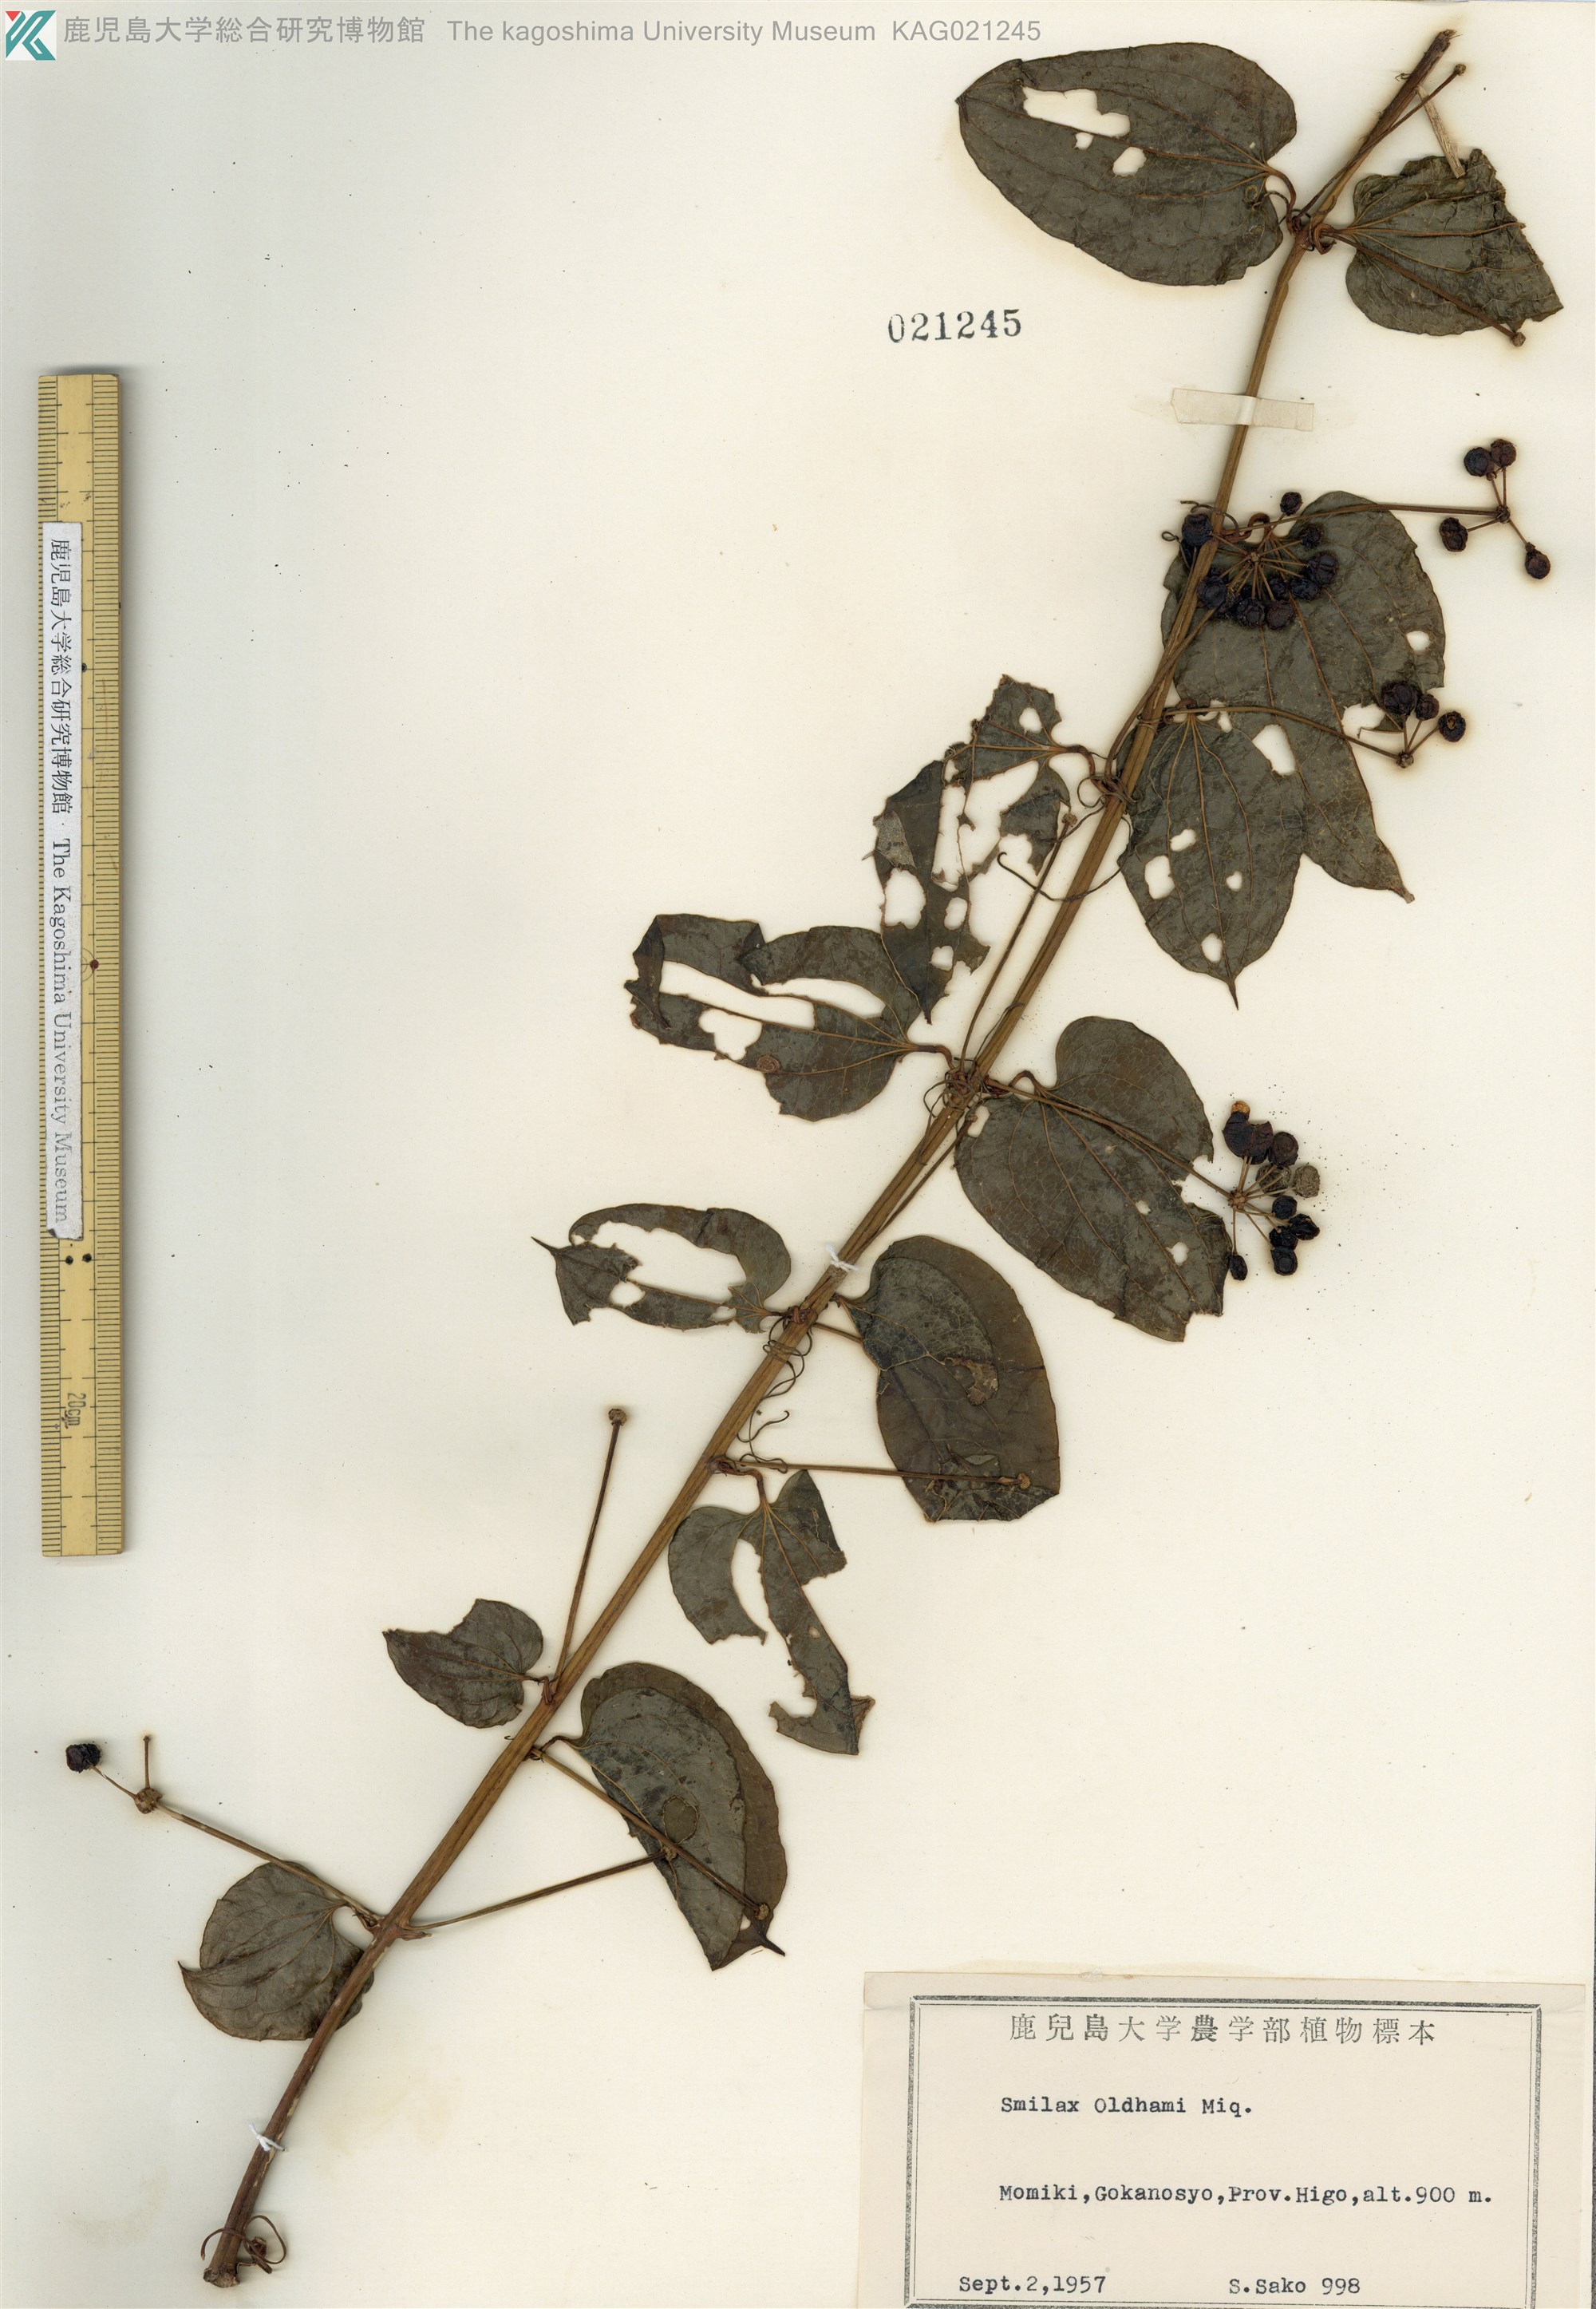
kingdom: Plantae
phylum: Tracheophyta
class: Liliopsida
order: Liliales
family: Smilacaceae
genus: Smilax
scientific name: Smilax riparia
